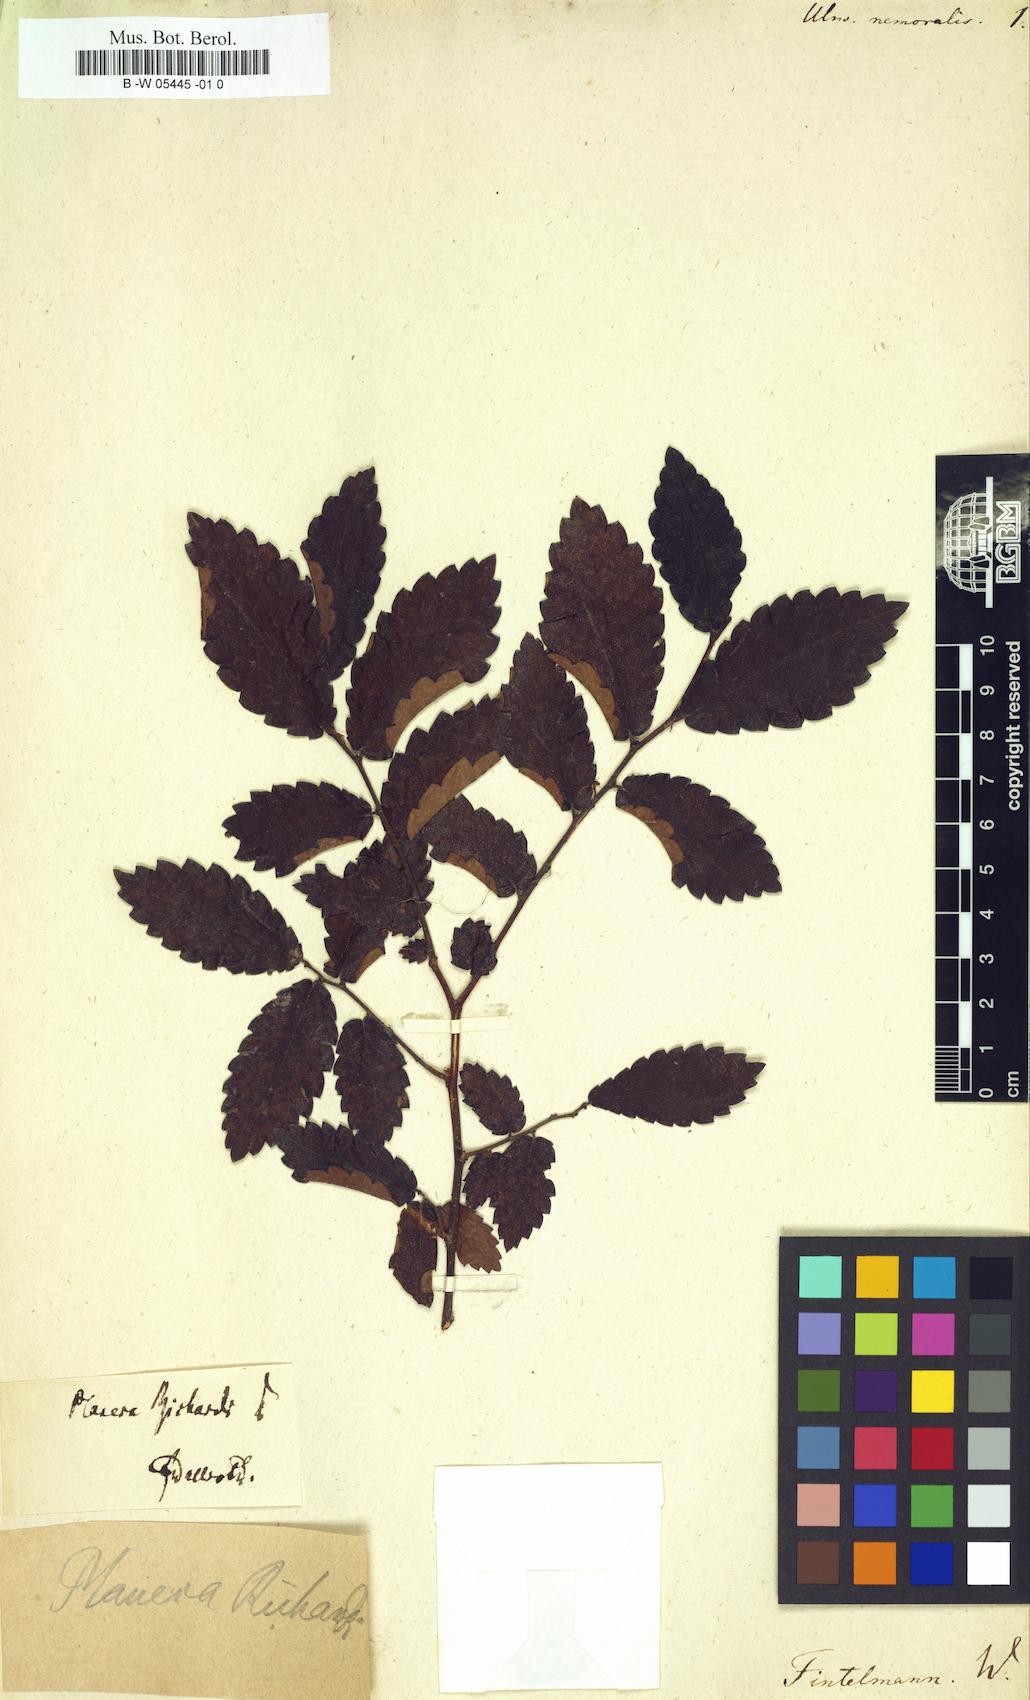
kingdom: Plantae
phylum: Tracheophyta
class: Magnoliopsida
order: Rosales
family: Ulmaceae
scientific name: Ulmaceae
